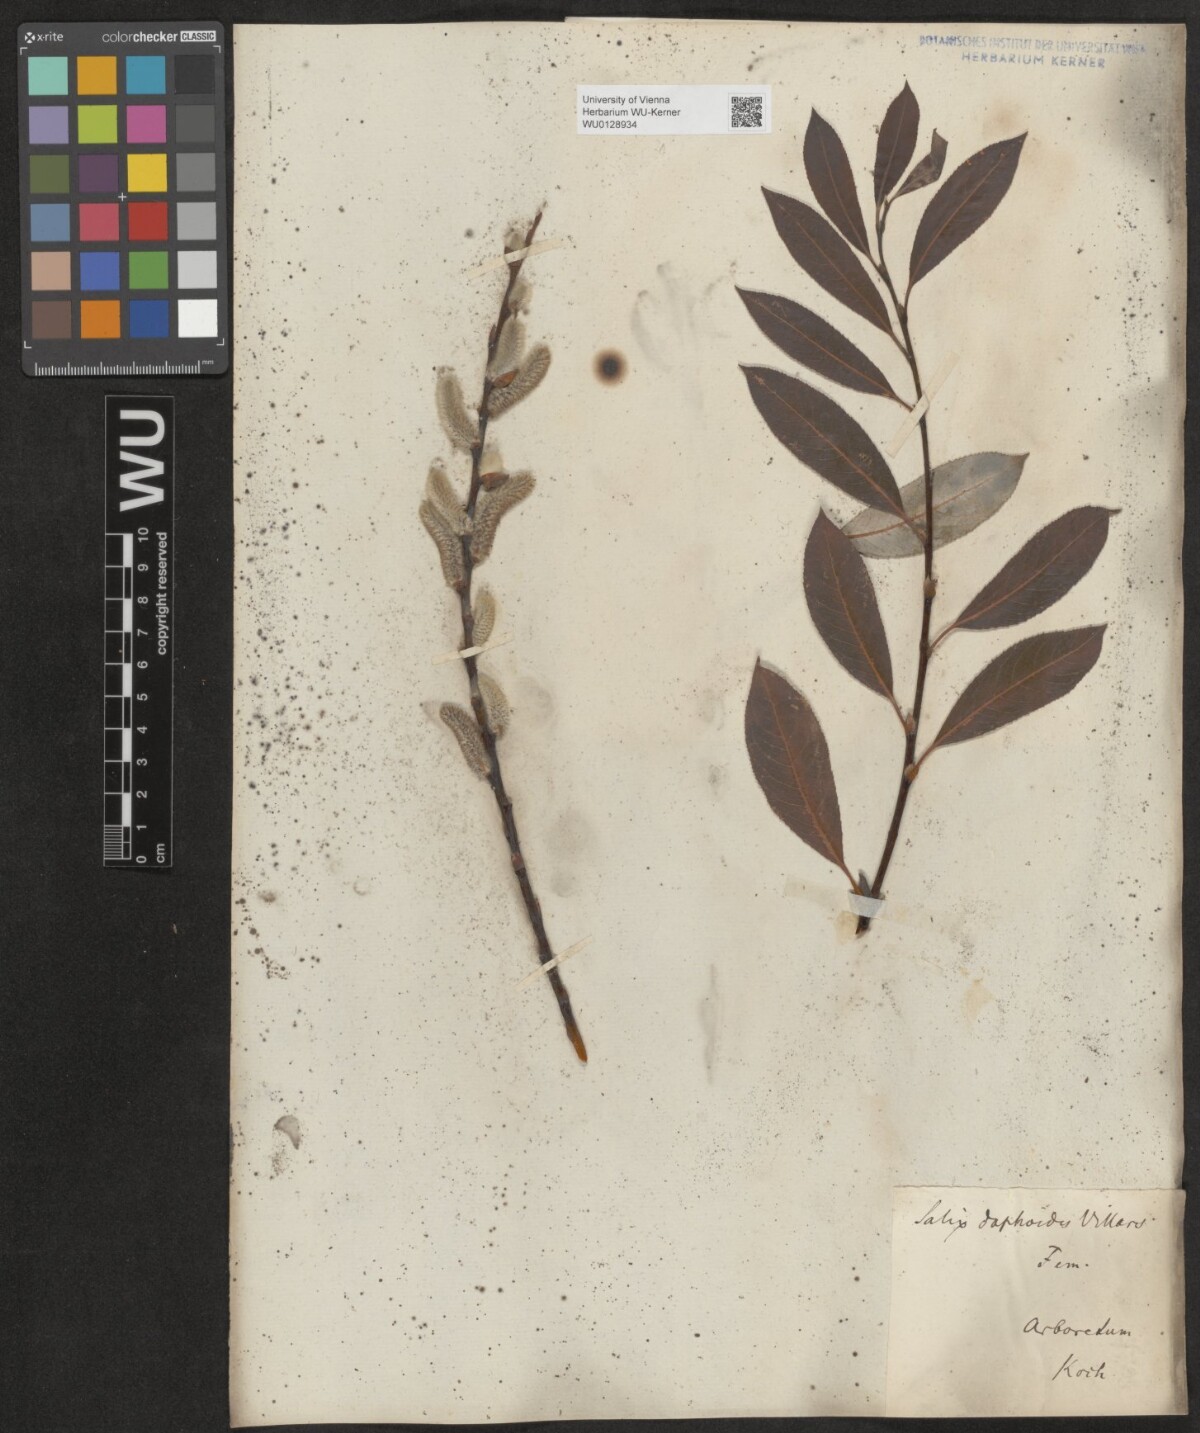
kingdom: Plantae
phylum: Tracheophyta
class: Magnoliopsida
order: Malpighiales
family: Salicaceae
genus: Salix
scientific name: Salix daphnoides
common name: European violet-willow
